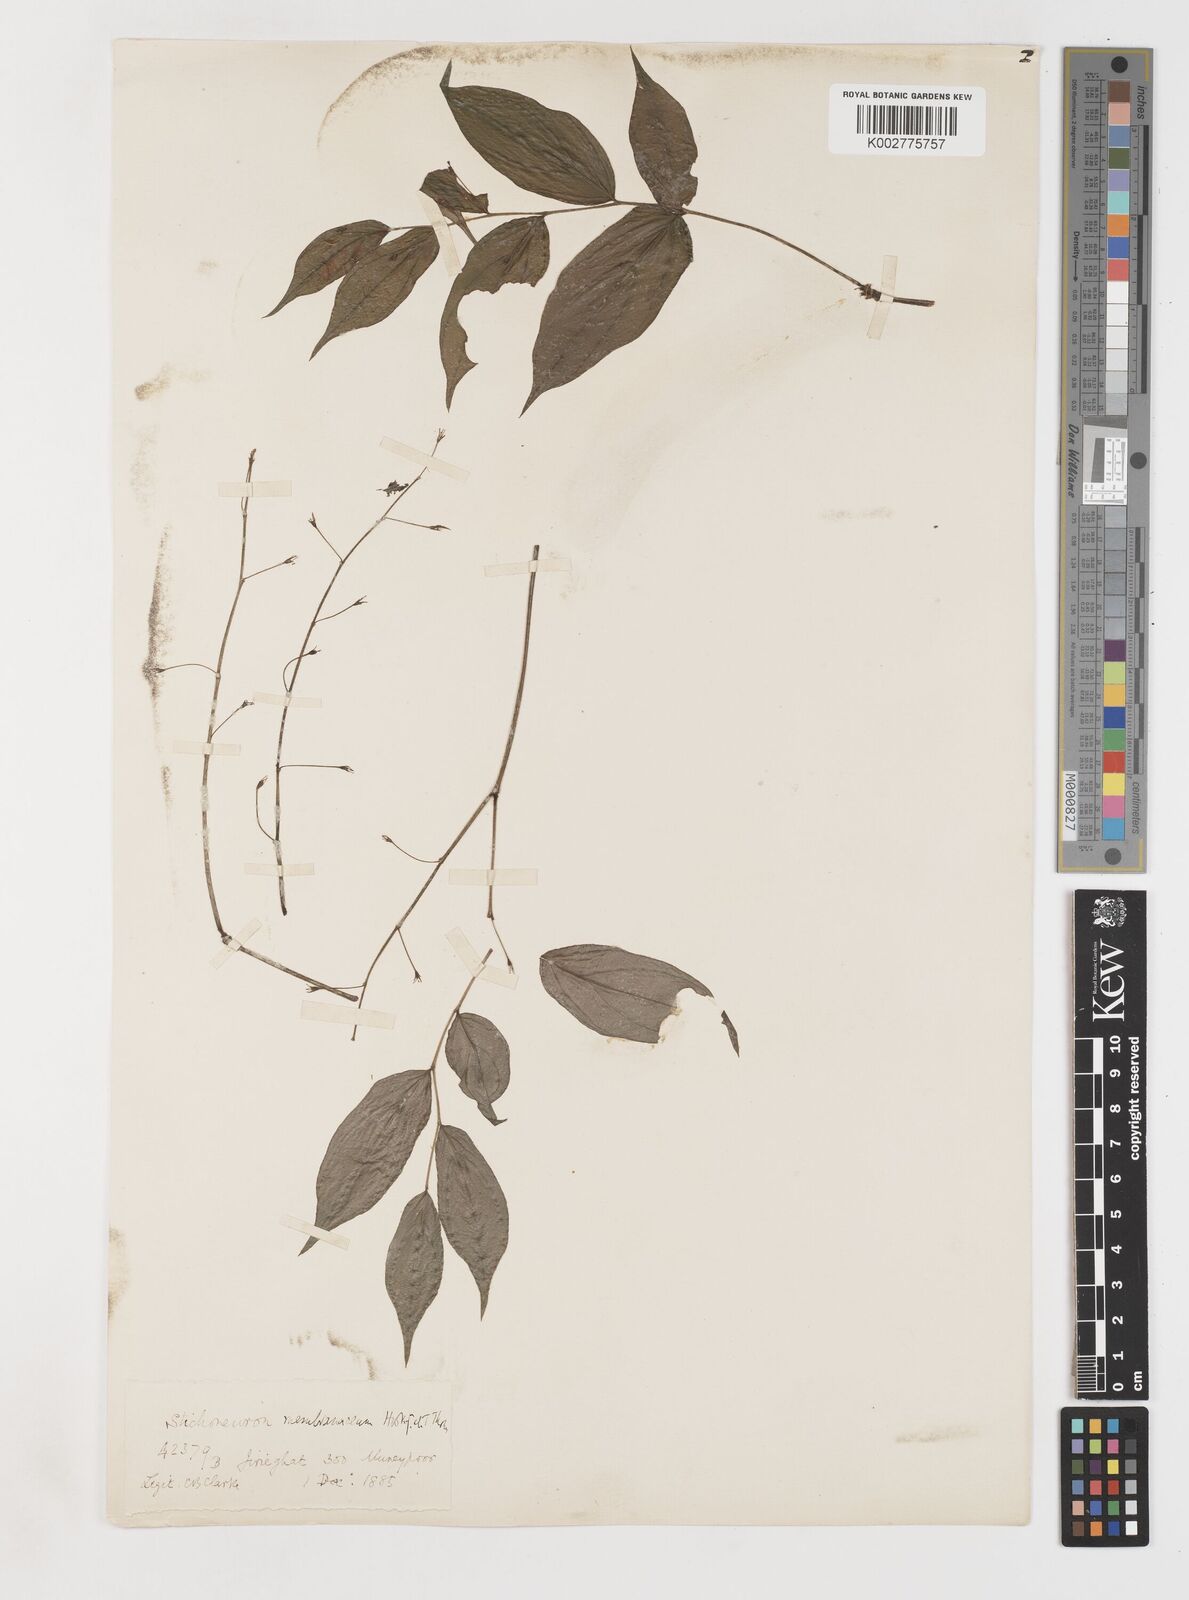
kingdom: Plantae
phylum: Tracheophyta
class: Liliopsida
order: Pandanales
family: Stemonaceae
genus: Stichoneuron
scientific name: Stichoneuron membranaceum
